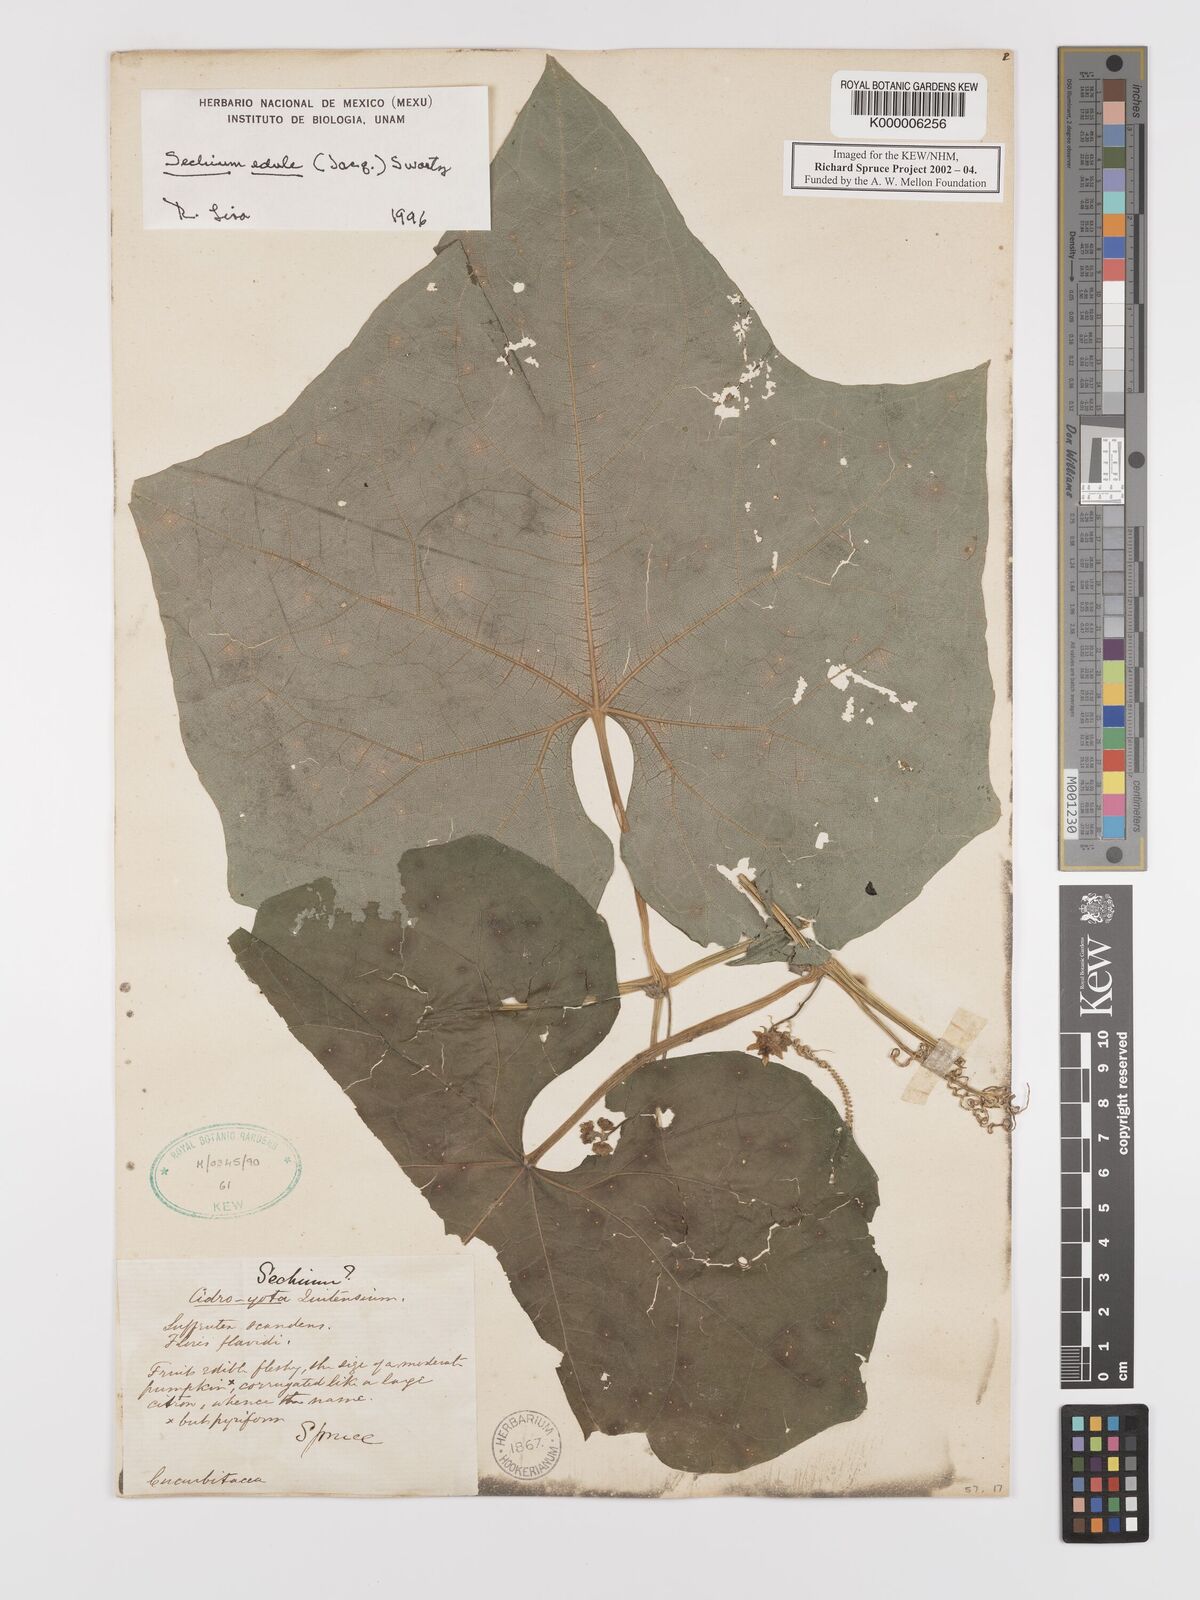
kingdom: Plantae
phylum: Tracheophyta
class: Magnoliopsida
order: Cucurbitales
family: Cucurbitaceae
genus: Sechium
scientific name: Sechium edule
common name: Chayote
